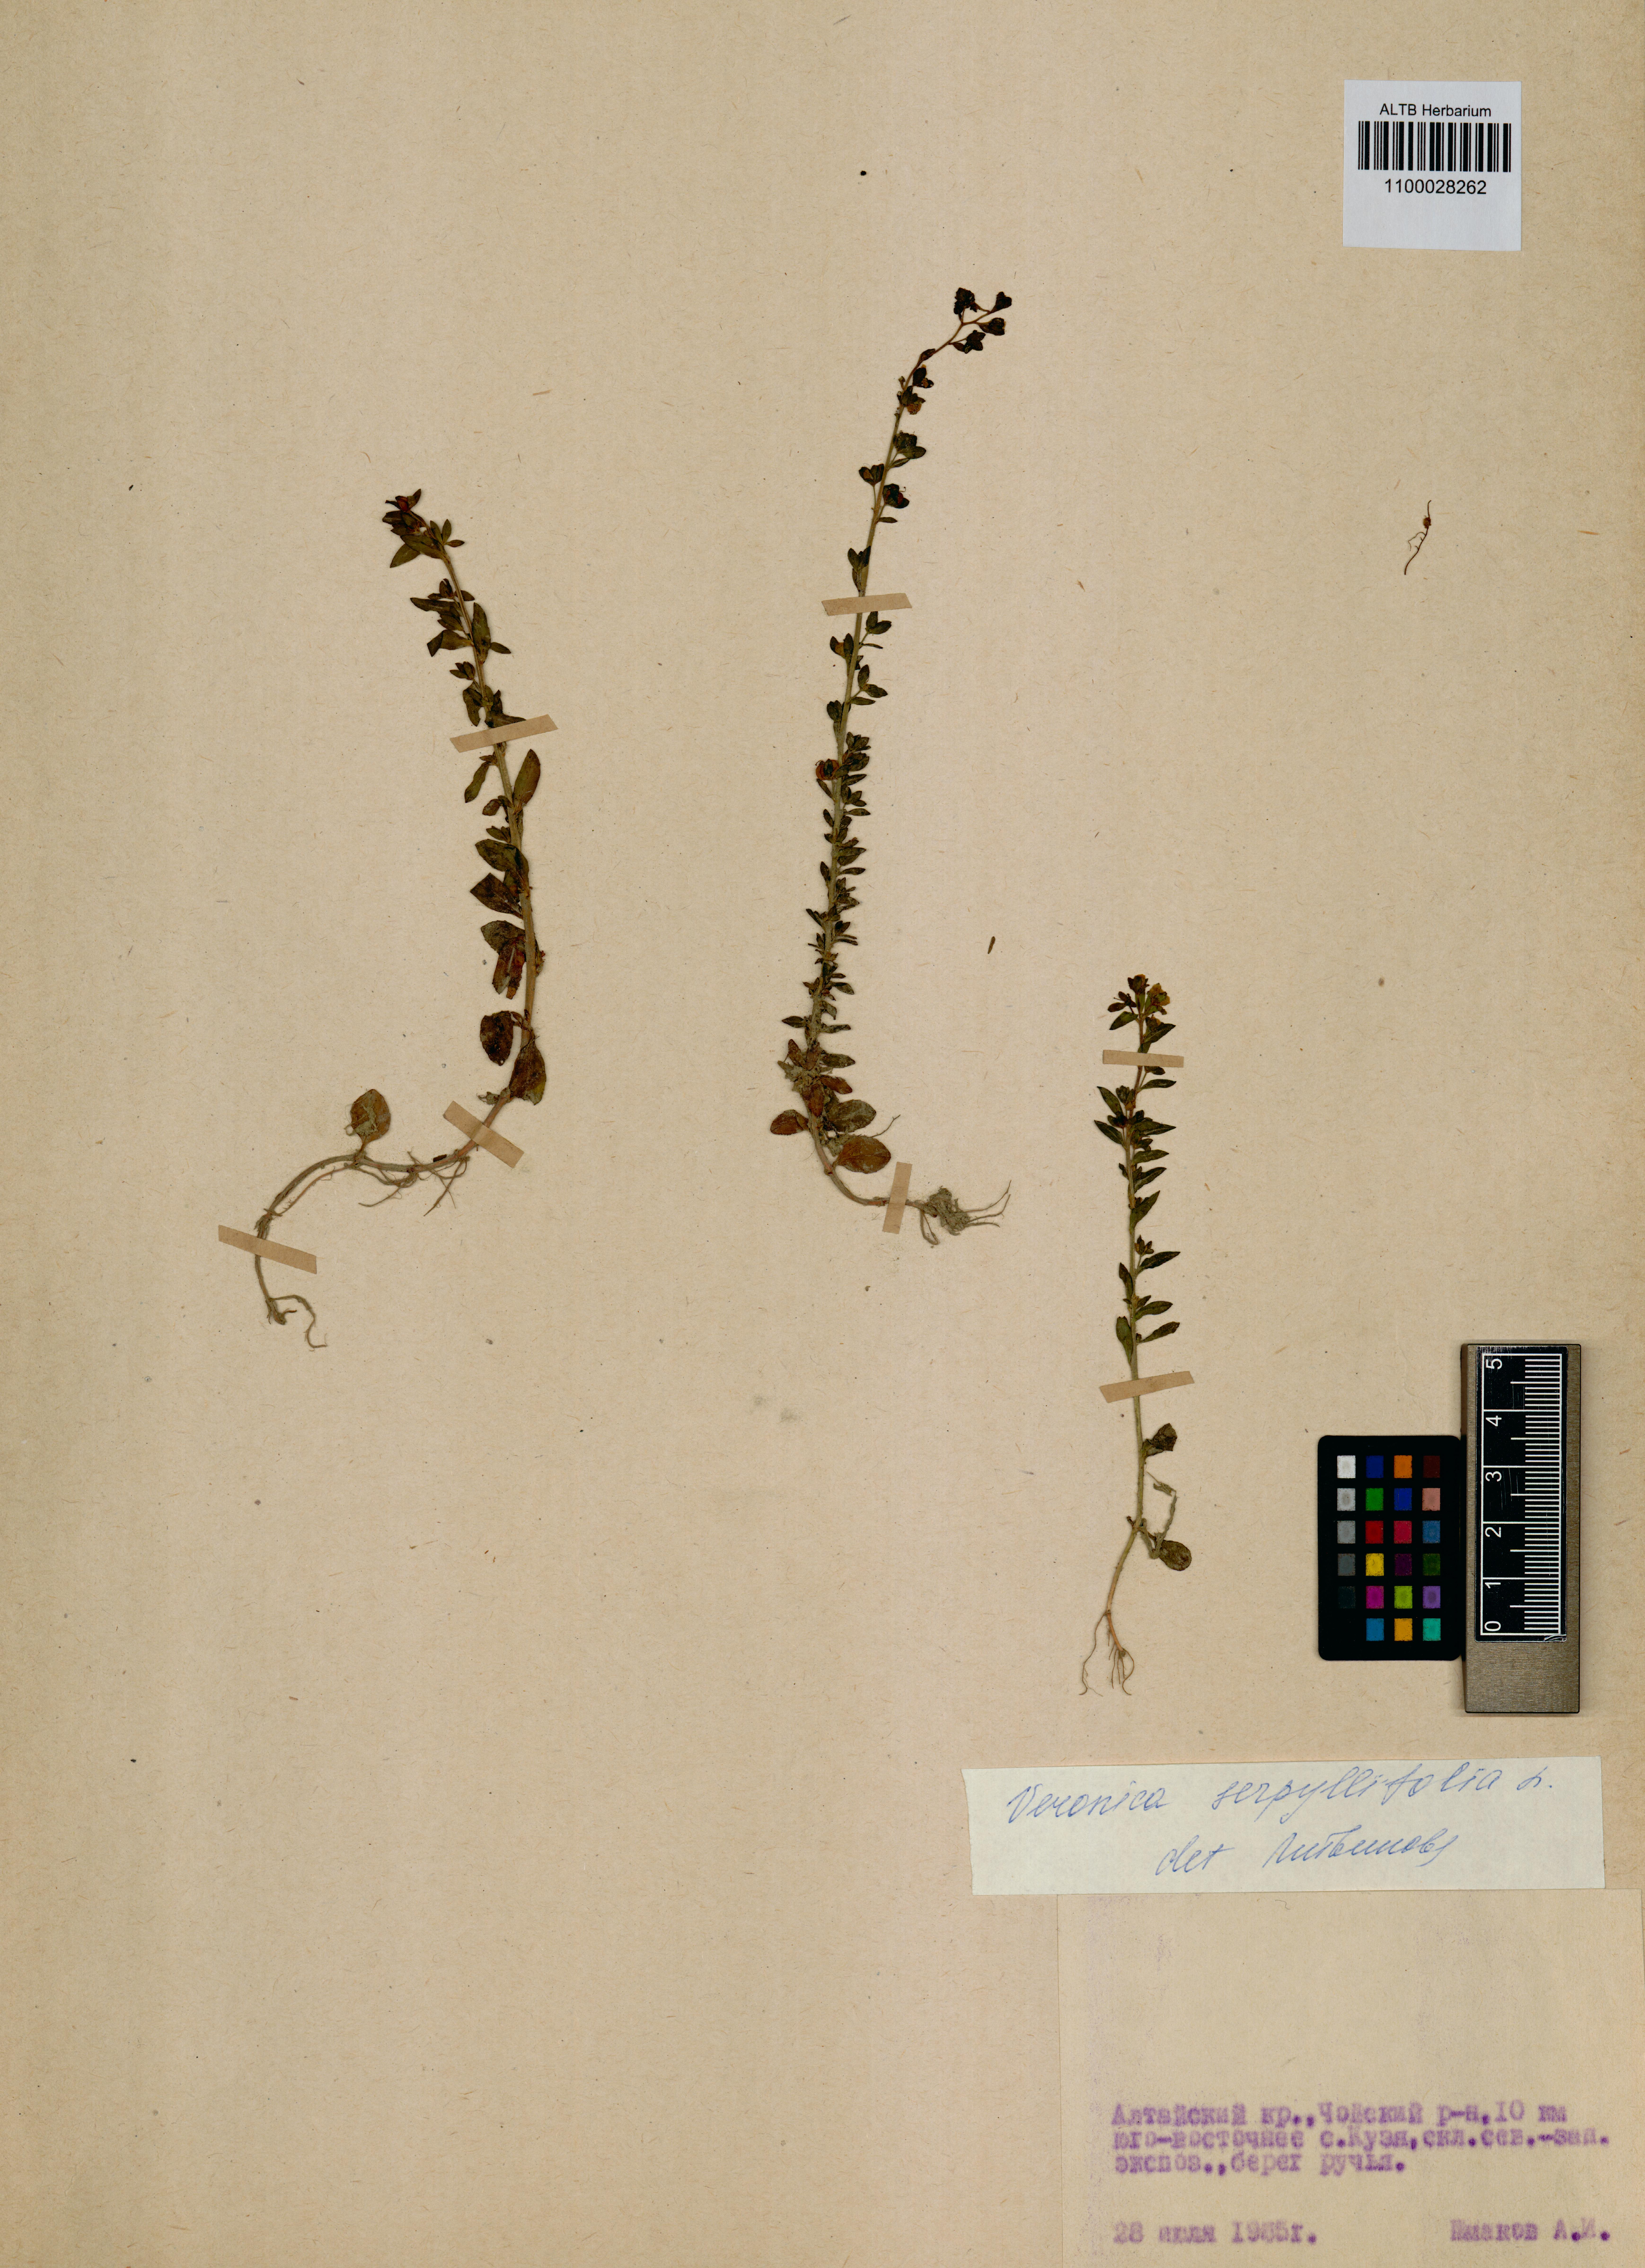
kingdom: Plantae
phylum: Tracheophyta
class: Magnoliopsida
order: Lamiales
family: Plantaginaceae
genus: Veronica
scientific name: Veronica serpyllifolia
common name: Thyme-leaved speedwell
